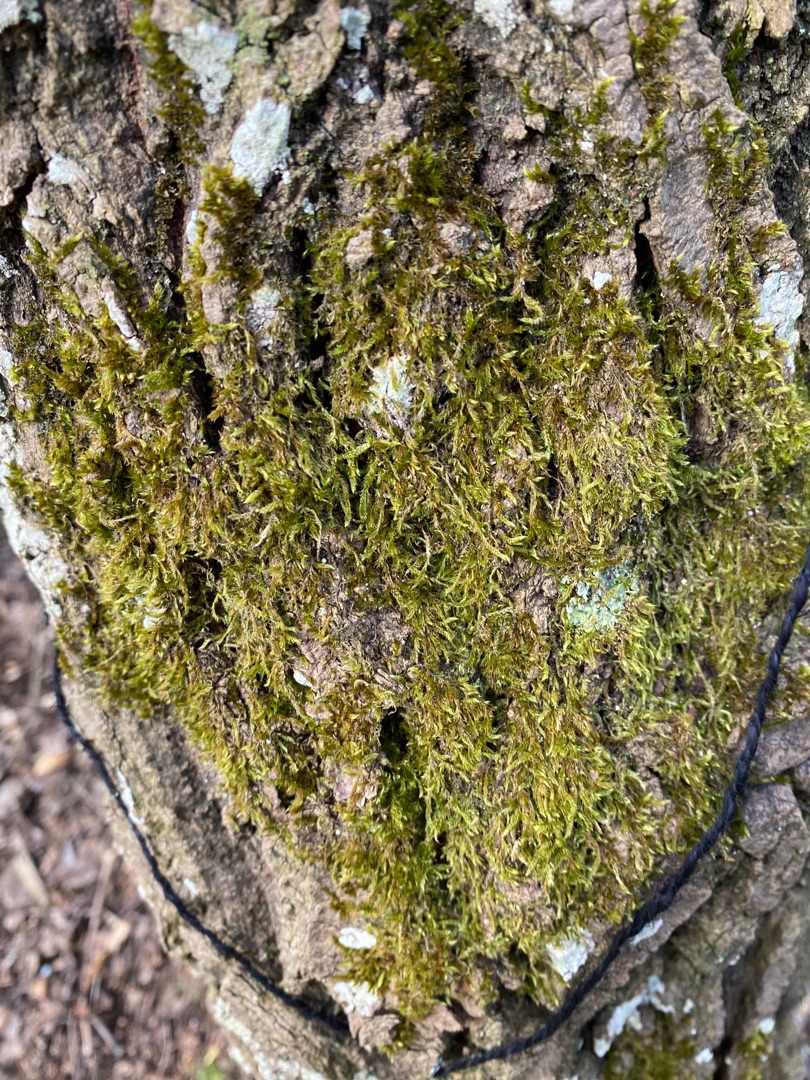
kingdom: Plantae
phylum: Bryophyta
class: Bryopsida
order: Hypnales
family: Hypnaceae
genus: Hypnum
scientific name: Hypnum cupressiforme
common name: Almindelig cypresmos
